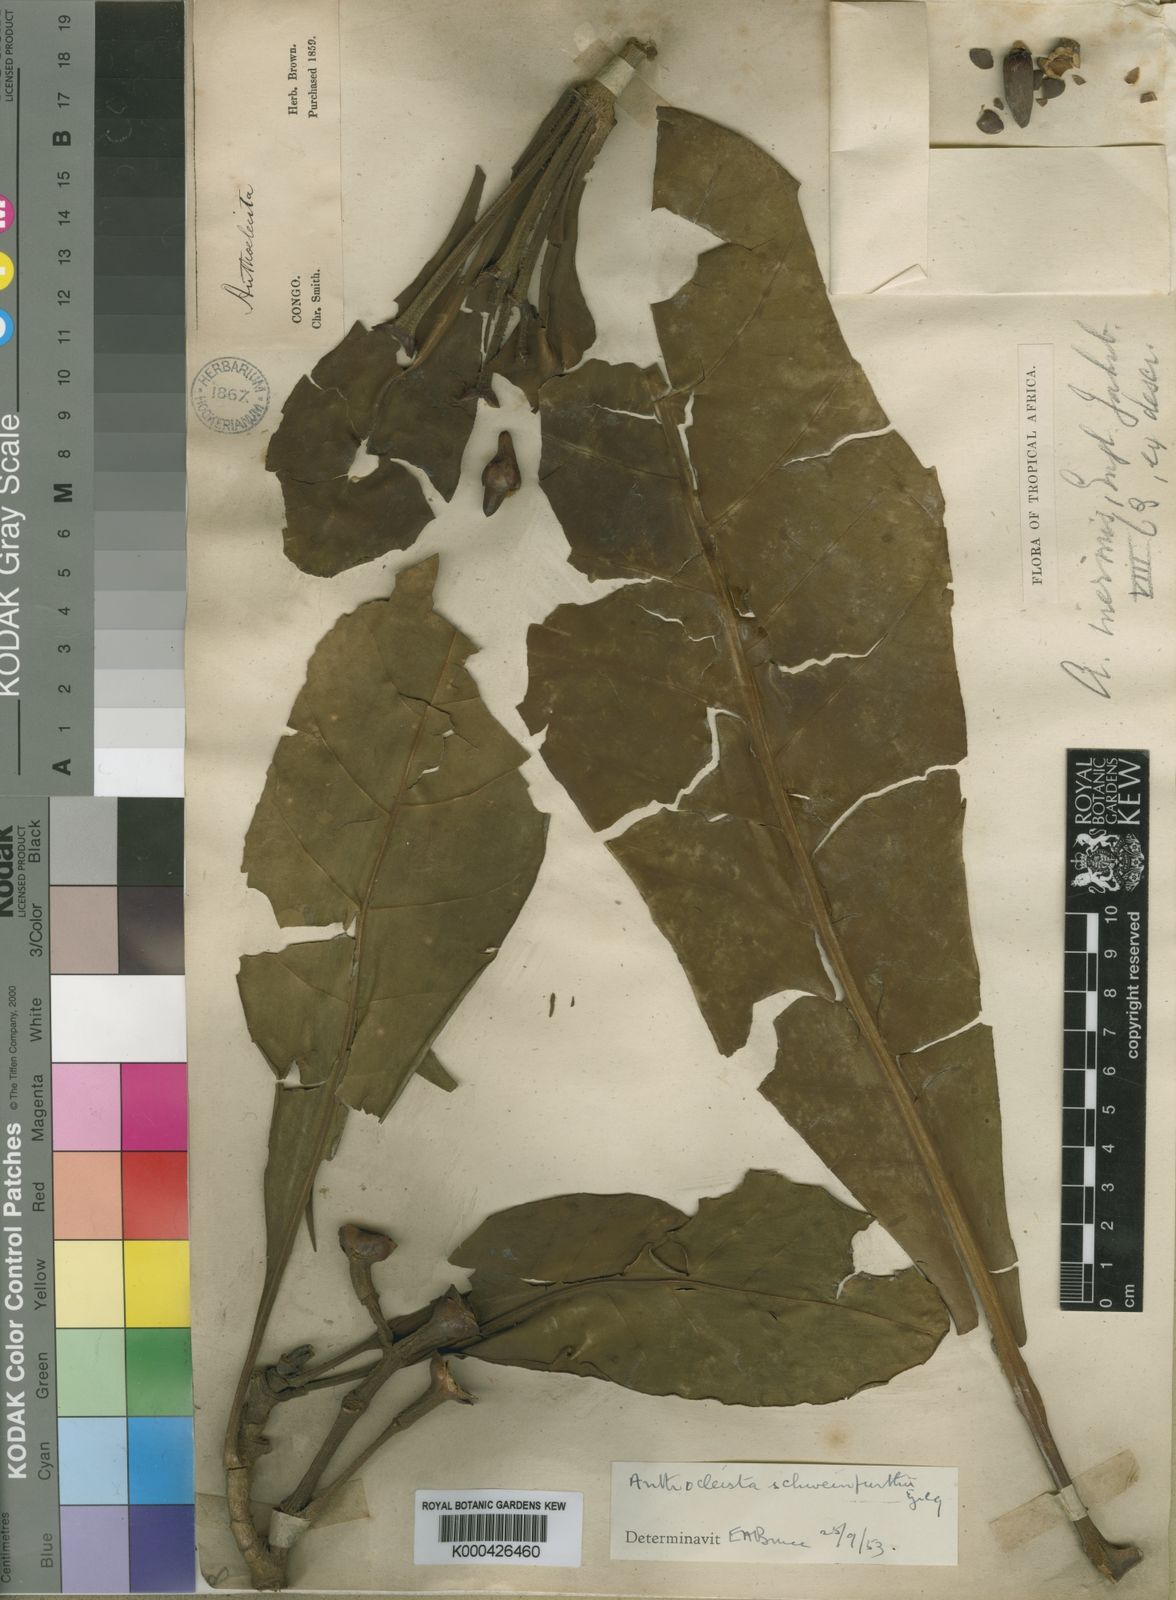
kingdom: Plantae
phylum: Tracheophyta
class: Magnoliopsida
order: Gentianales
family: Gentianaceae
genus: Anthocleista
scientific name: Anthocleista schweinfurthii
